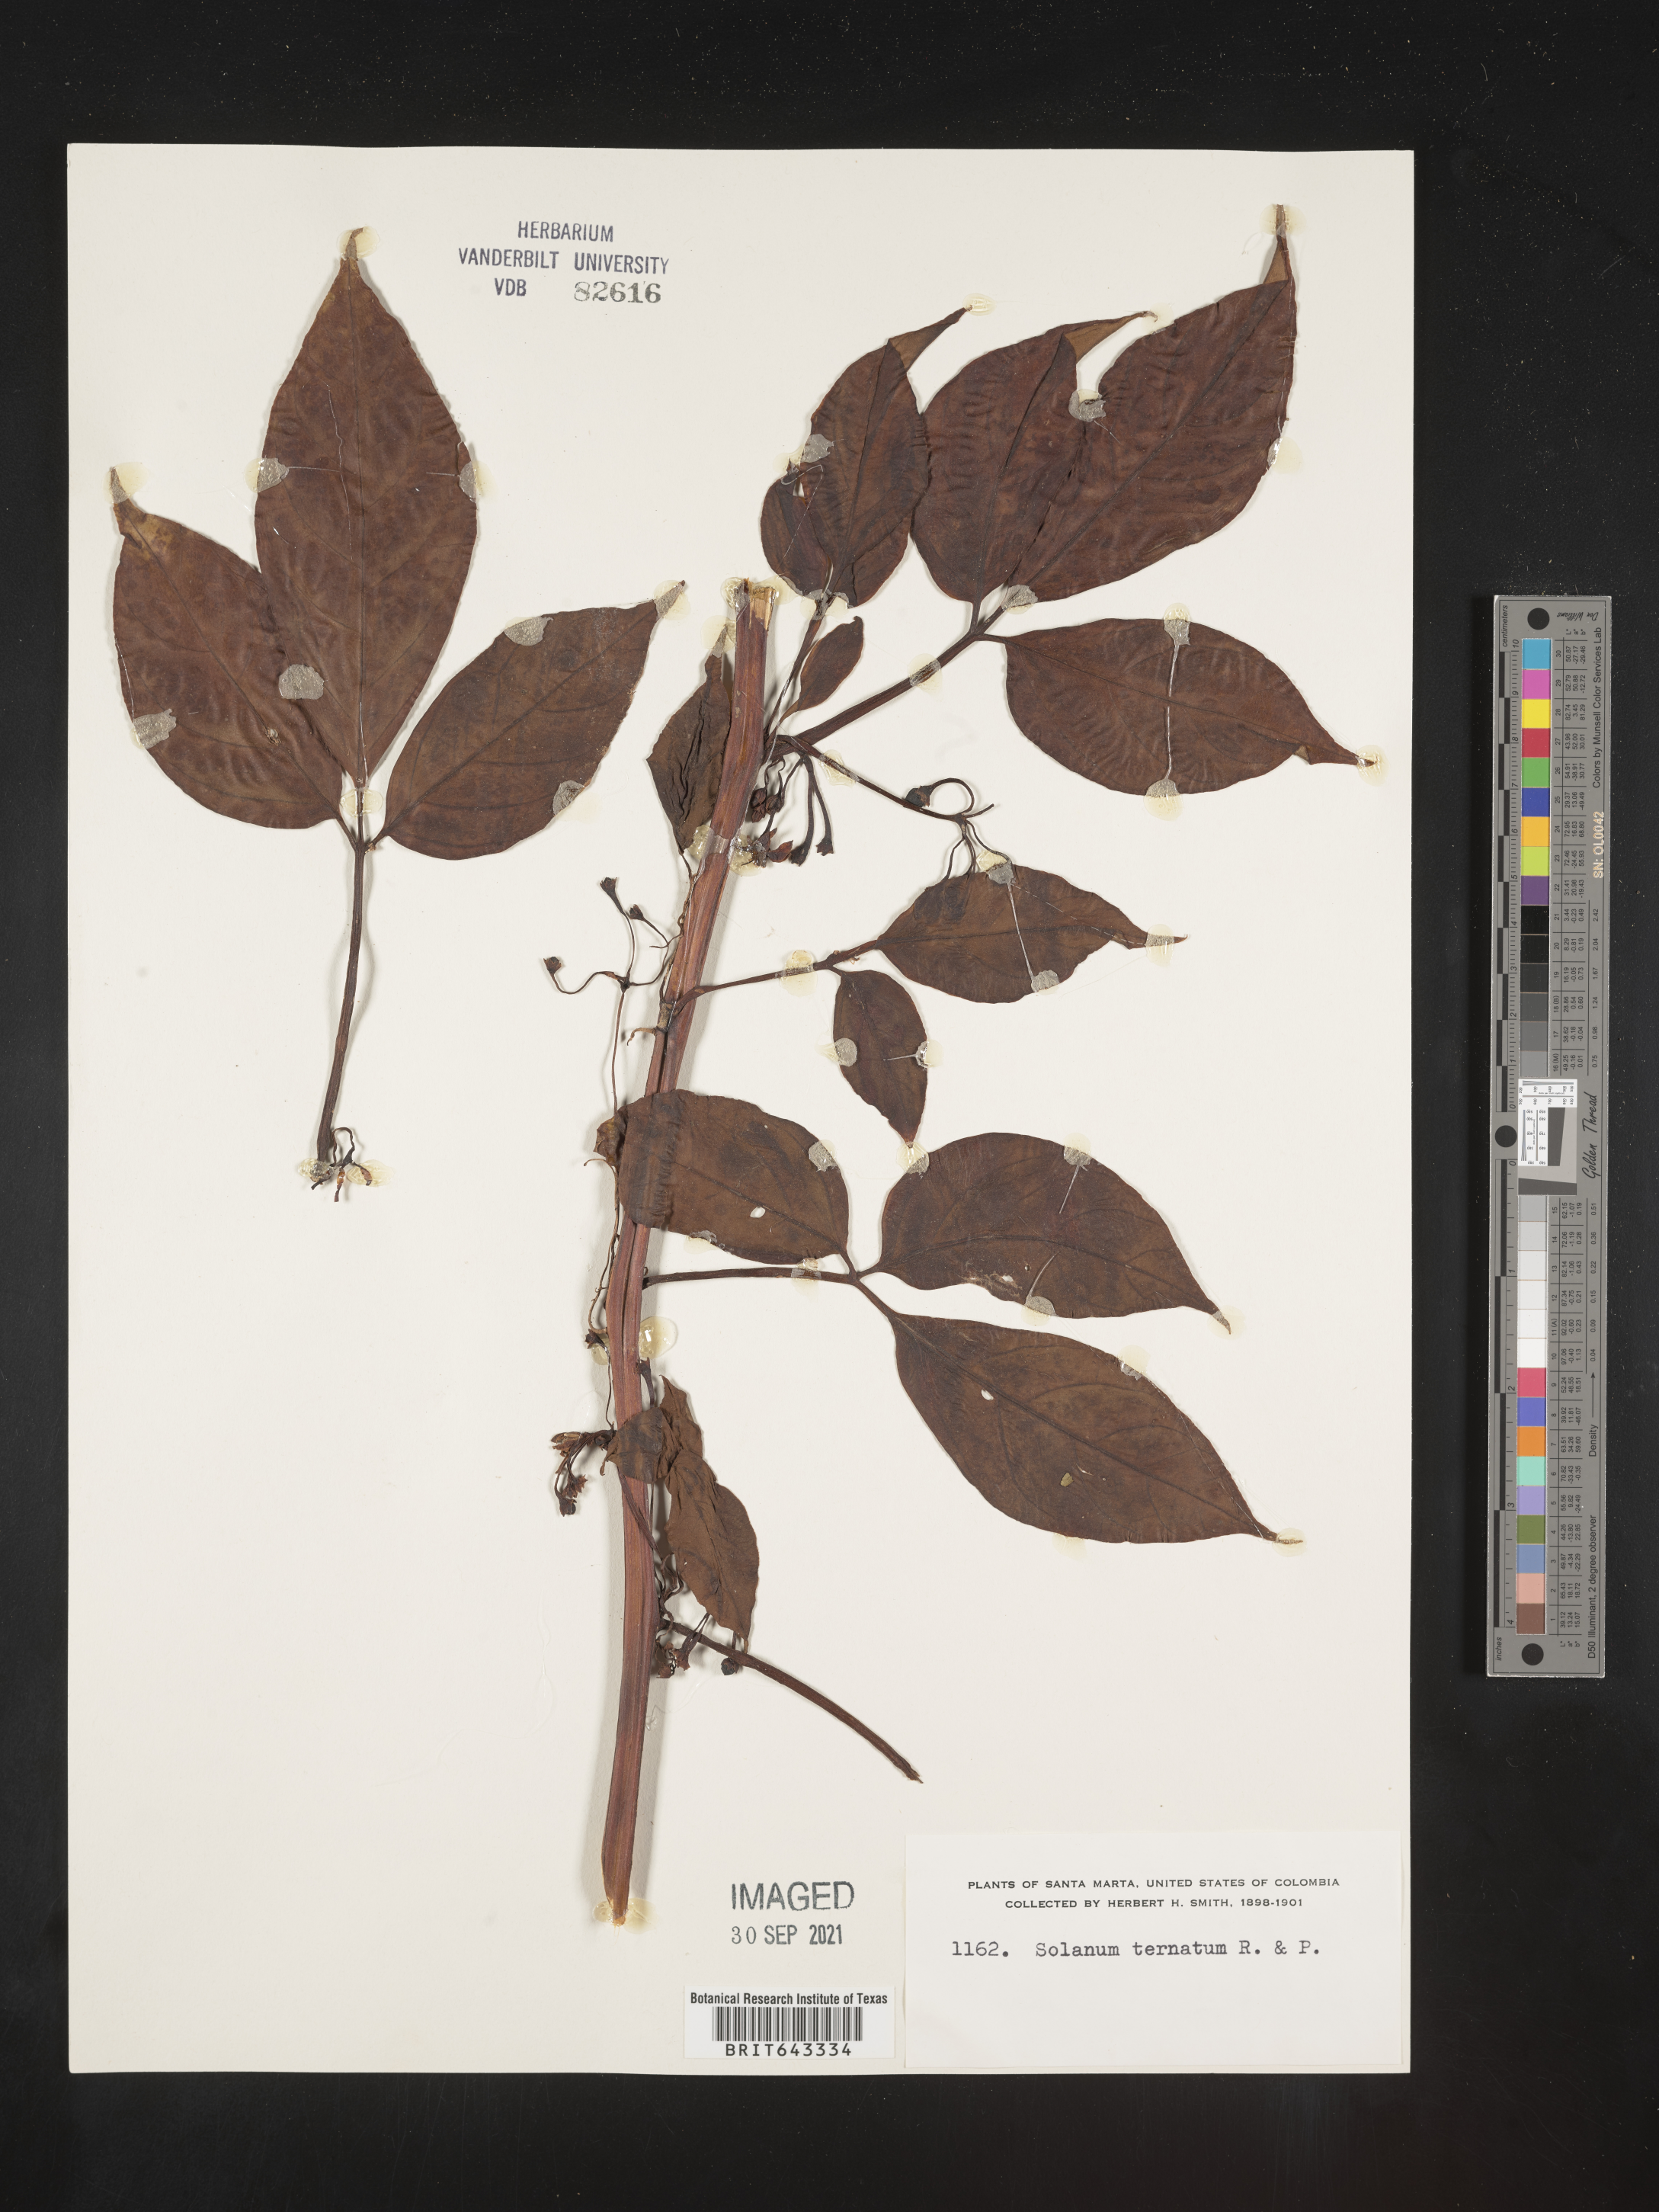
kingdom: Plantae
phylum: Tracheophyta
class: Magnoliopsida
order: Solanales
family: Solanaceae
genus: Solanum
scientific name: Solanum
